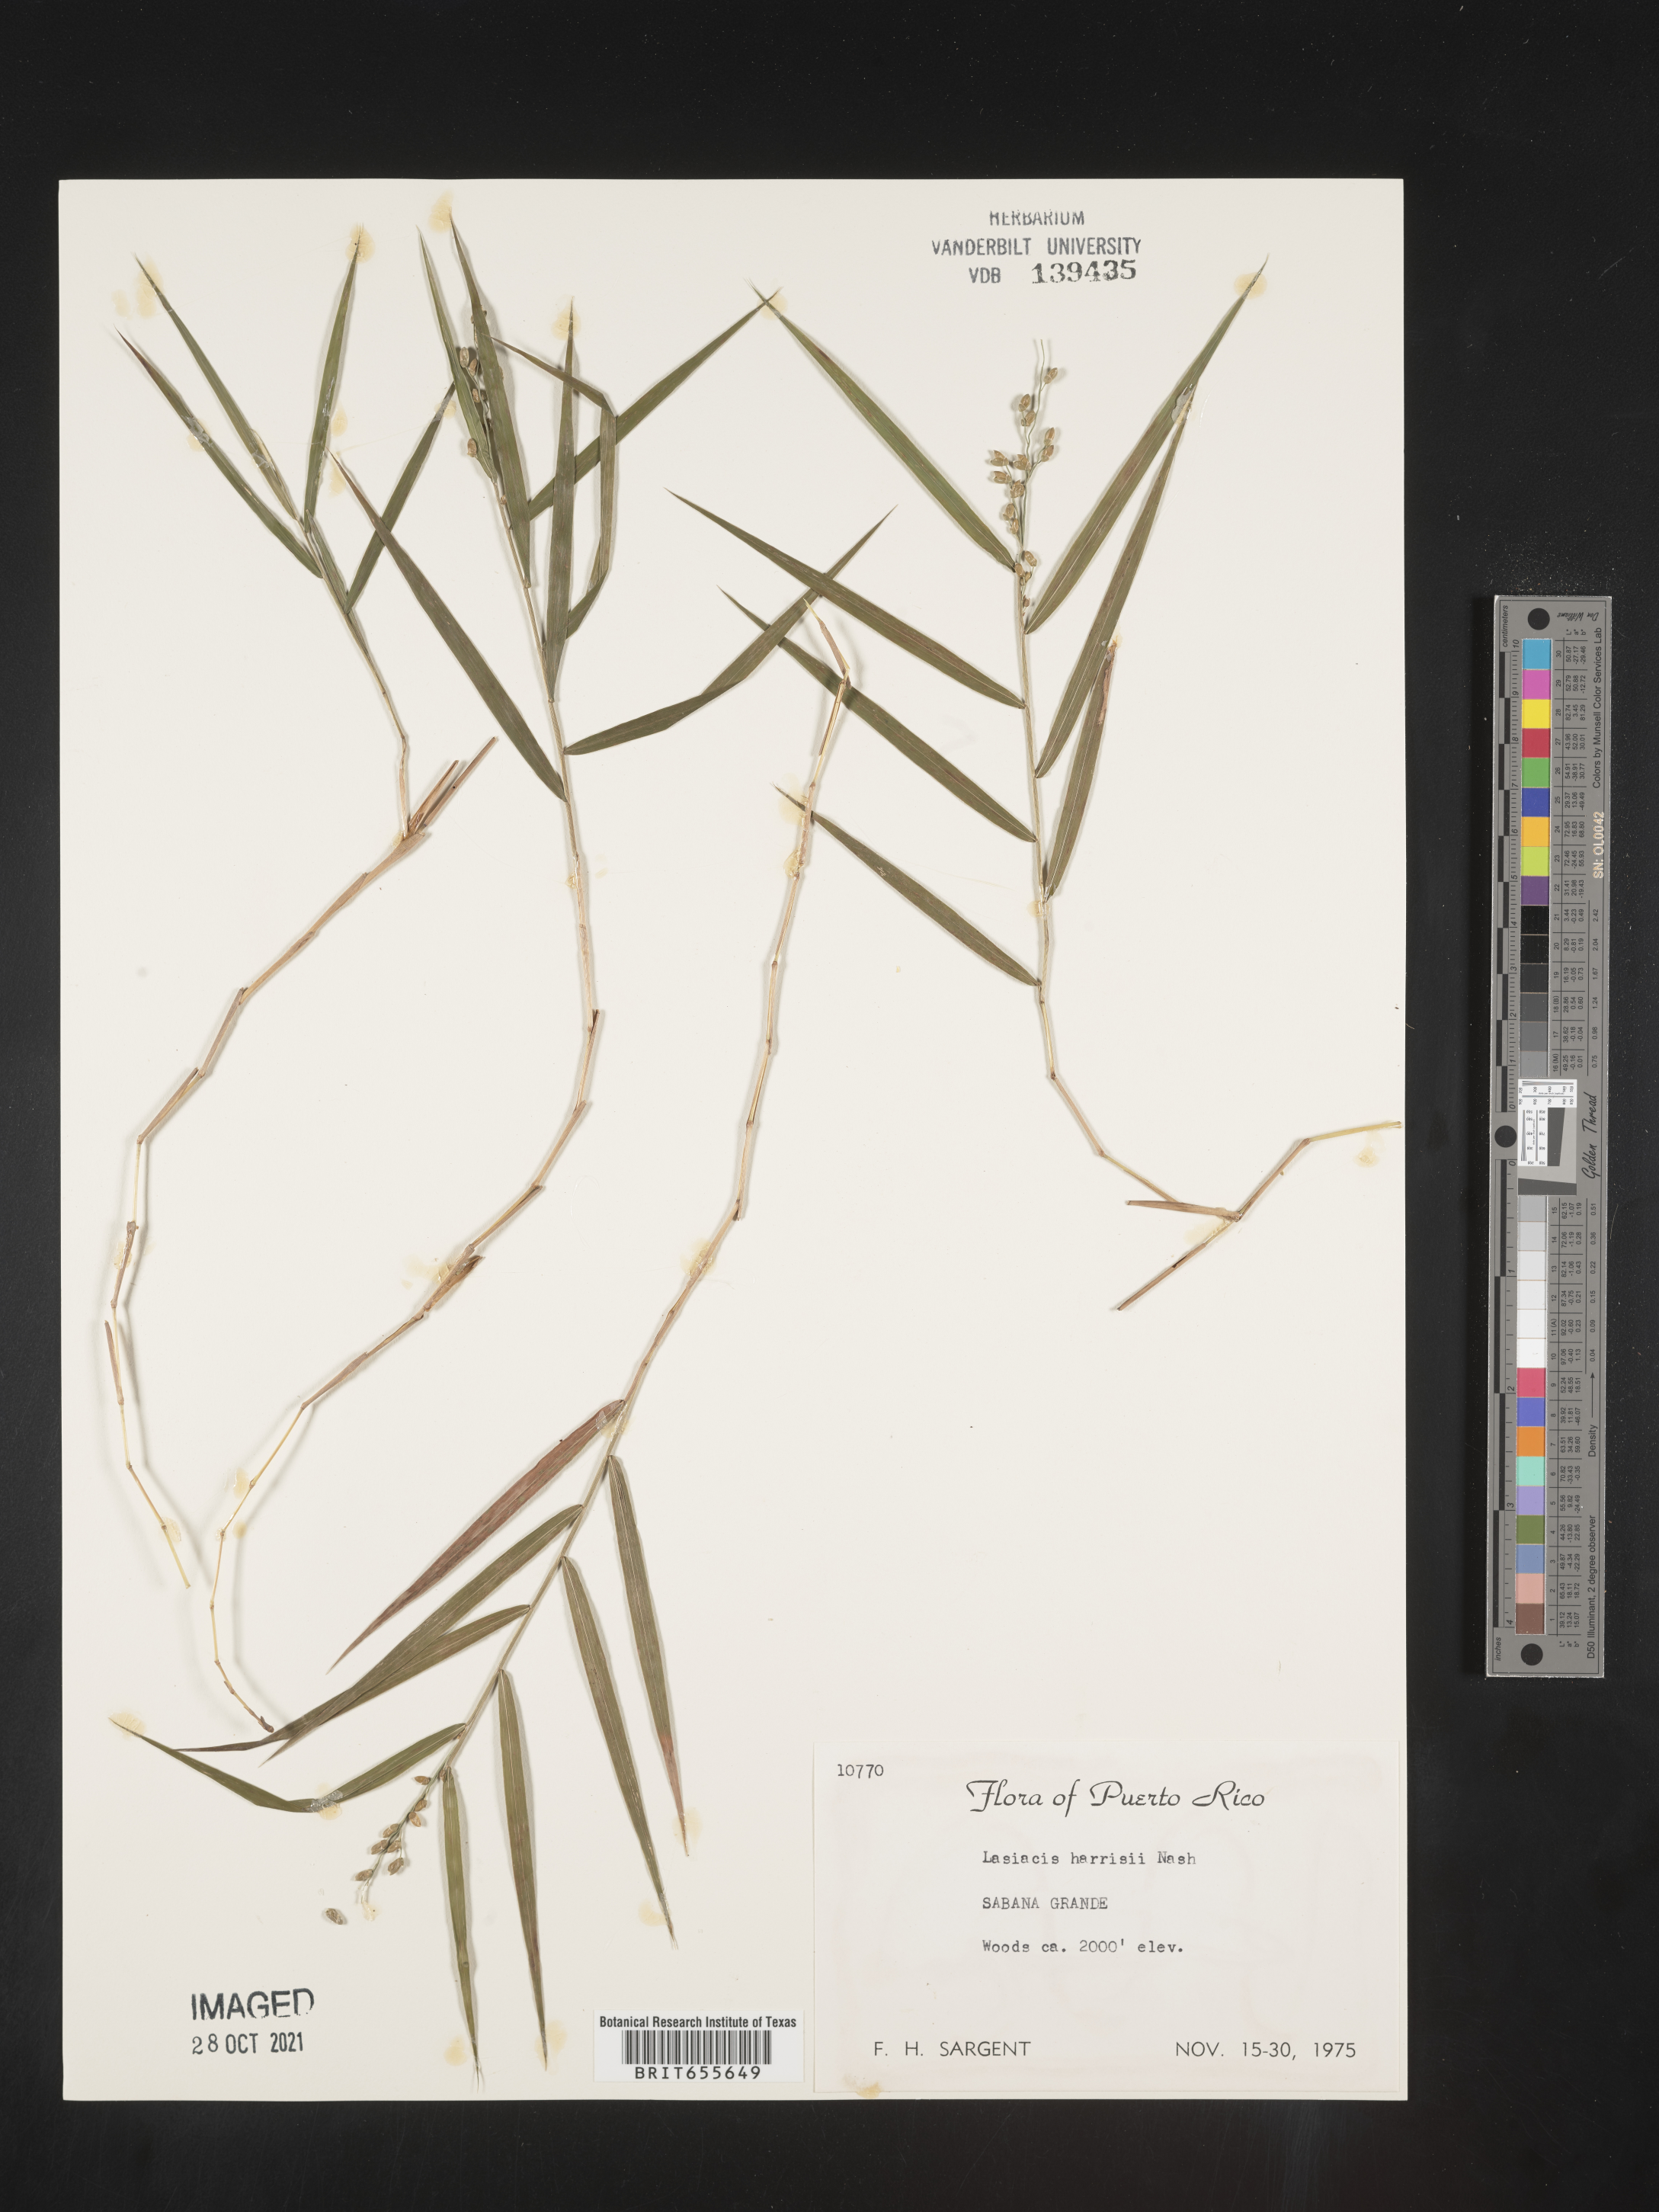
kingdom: Plantae
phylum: Tracheophyta
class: Liliopsida
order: Poales
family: Poaceae
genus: Lasiacis
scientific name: Lasiacis
